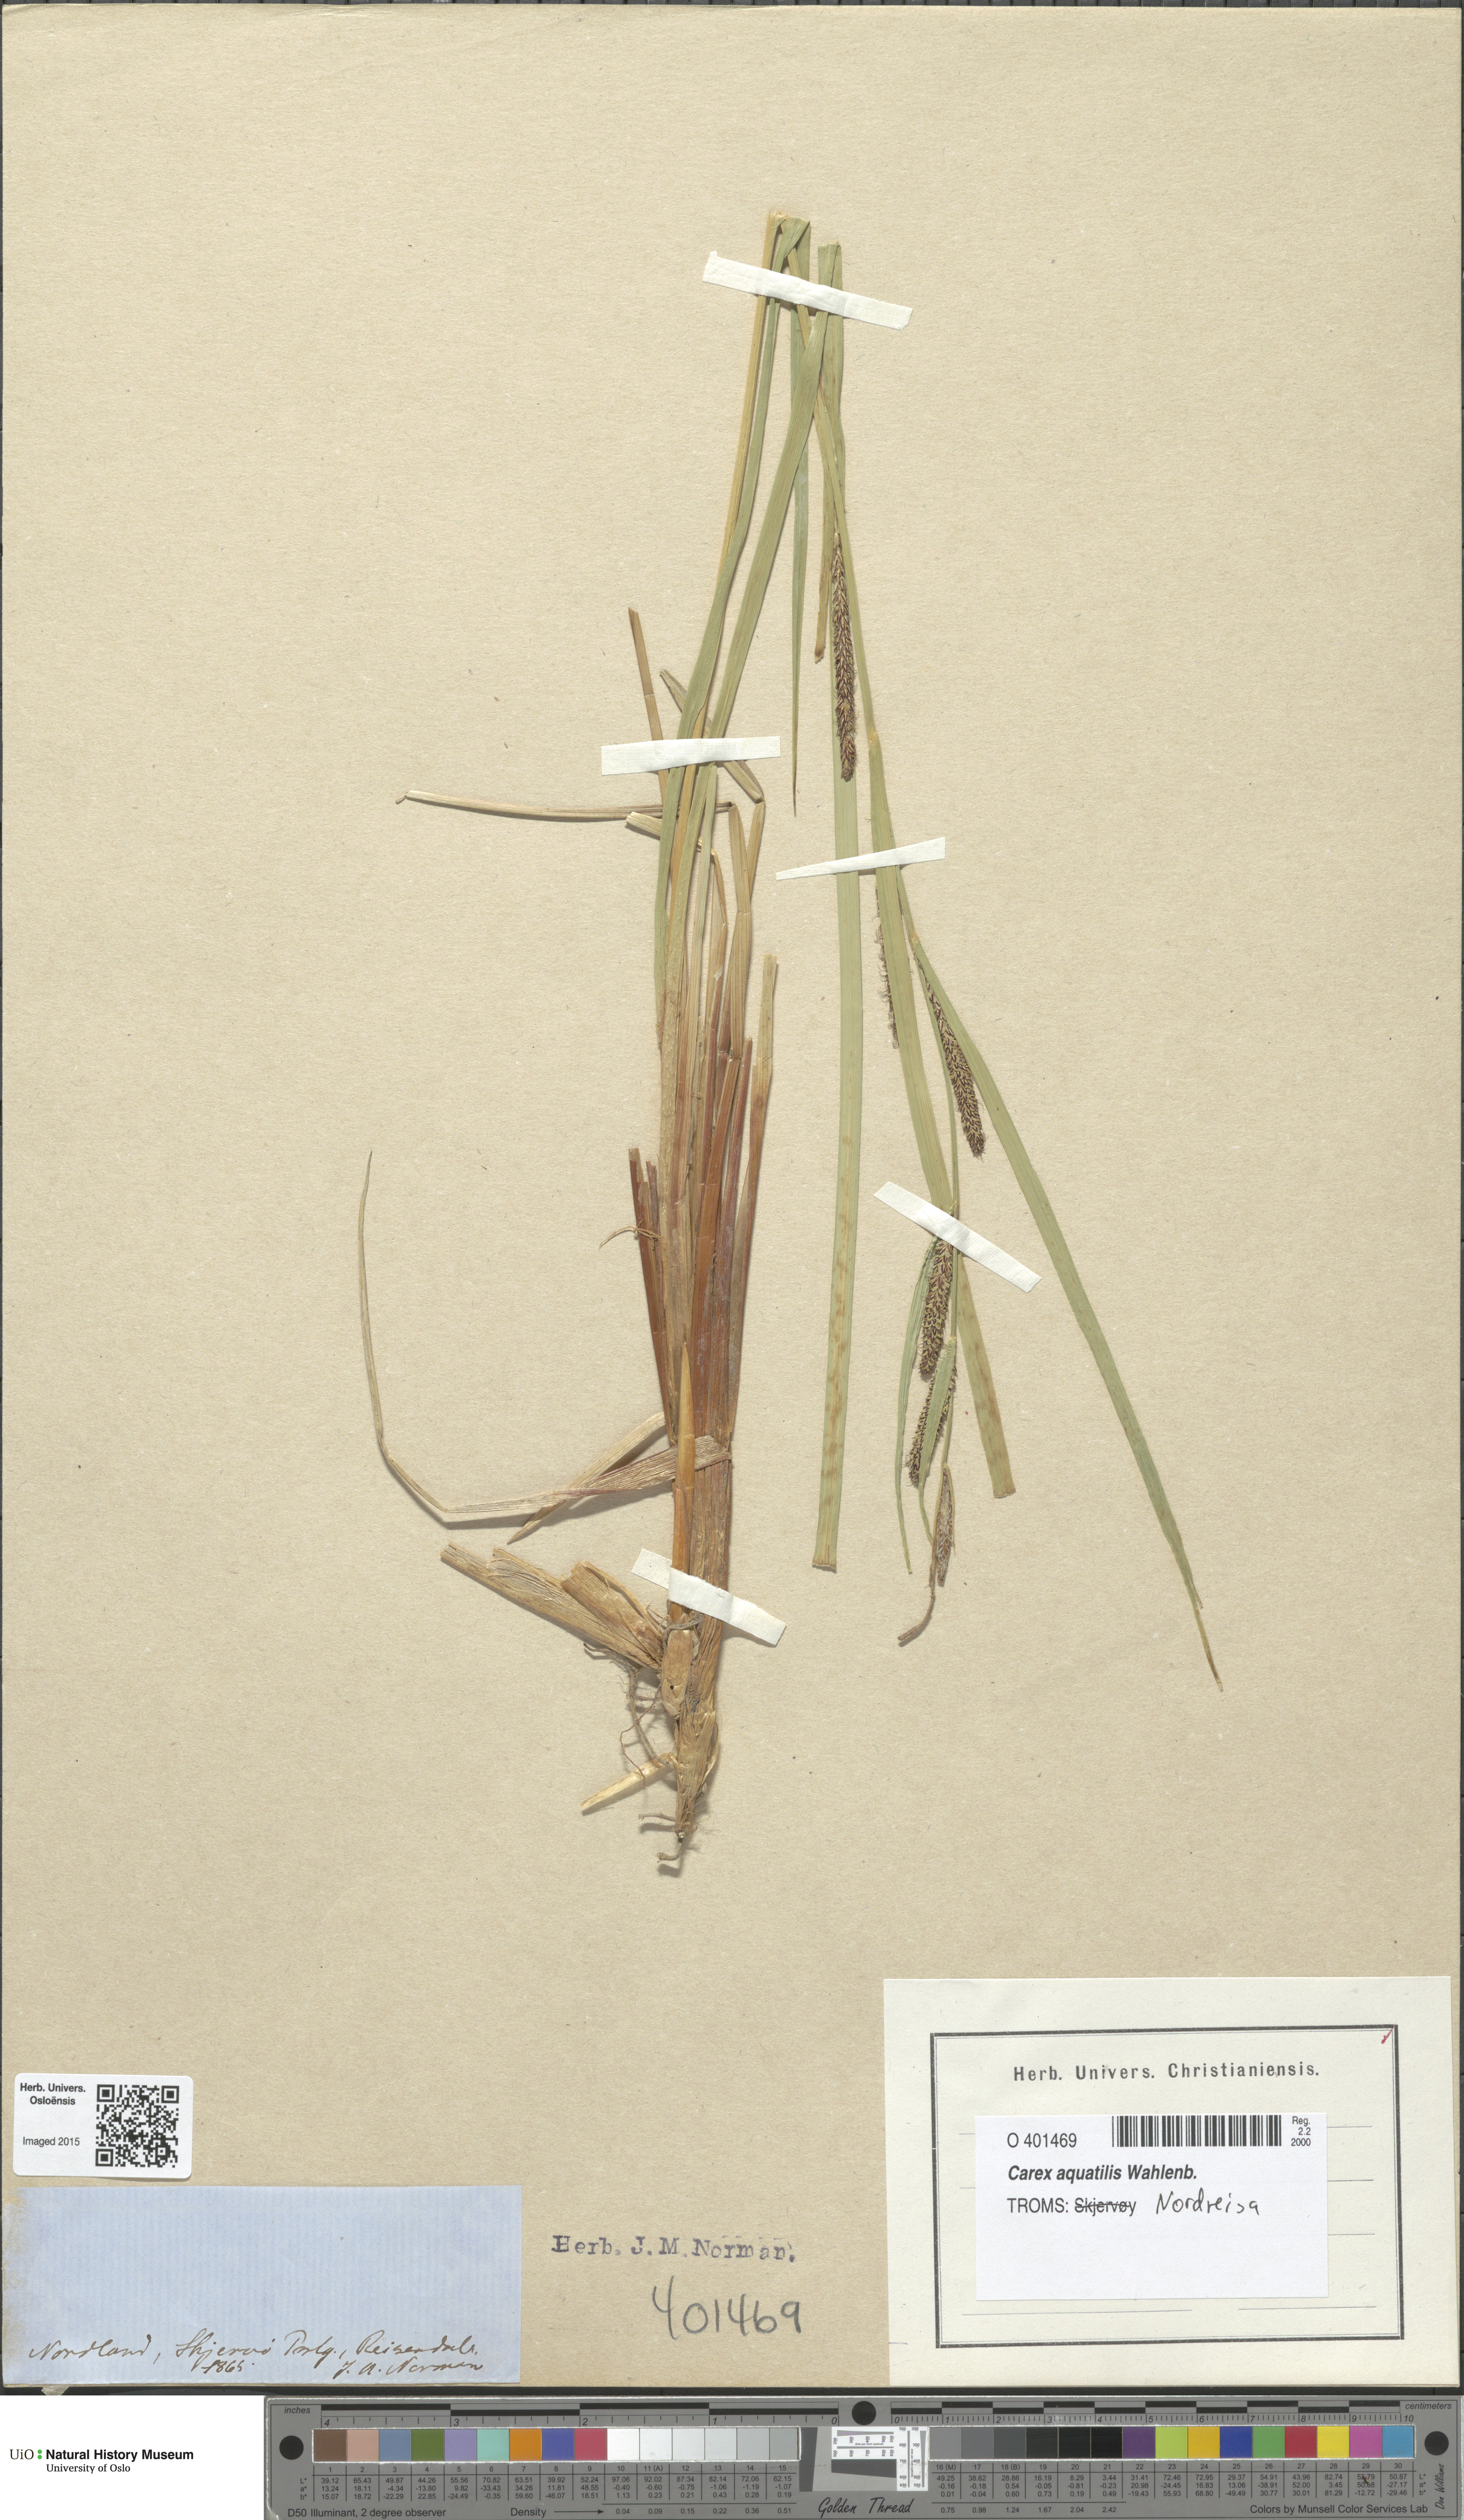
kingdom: Plantae
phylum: Tracheophyta
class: Liliopsida
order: Poales
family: Cyperaceae
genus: Carex
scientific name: Carex aquatilis
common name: Water sedge
